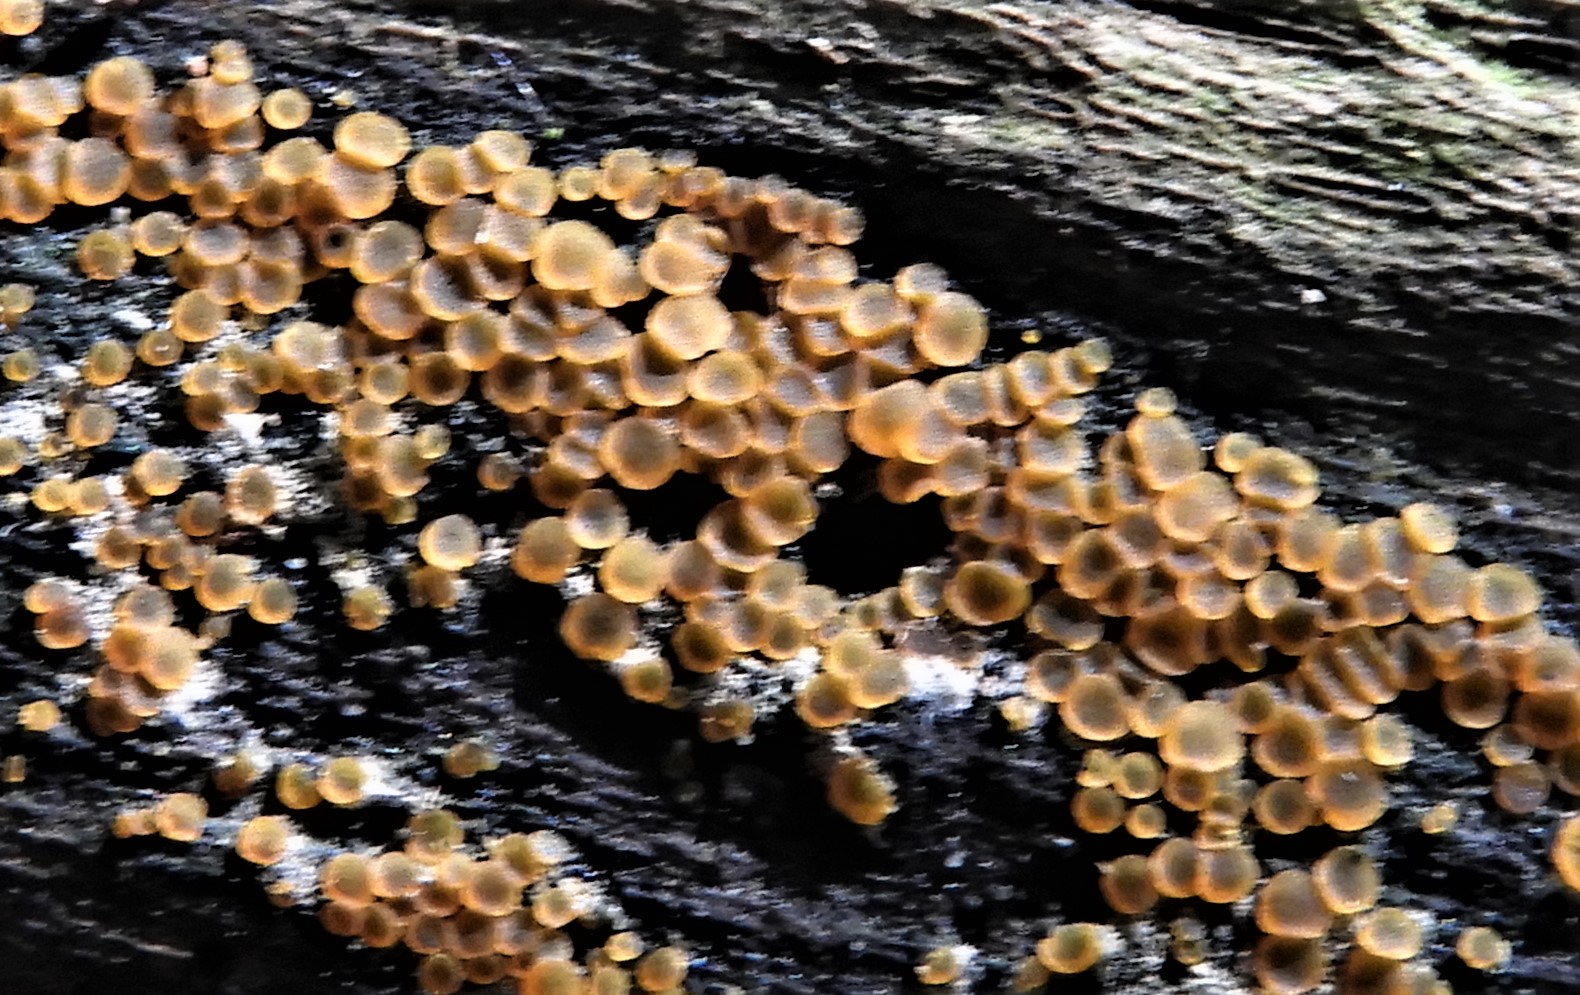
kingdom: Fungi
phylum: Ascomycota
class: Orbiliomycetes
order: Orbiliales
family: Orbiliaceae
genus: Orbilia
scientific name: Orbilia xanthostigma
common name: krumsporet voksskive
